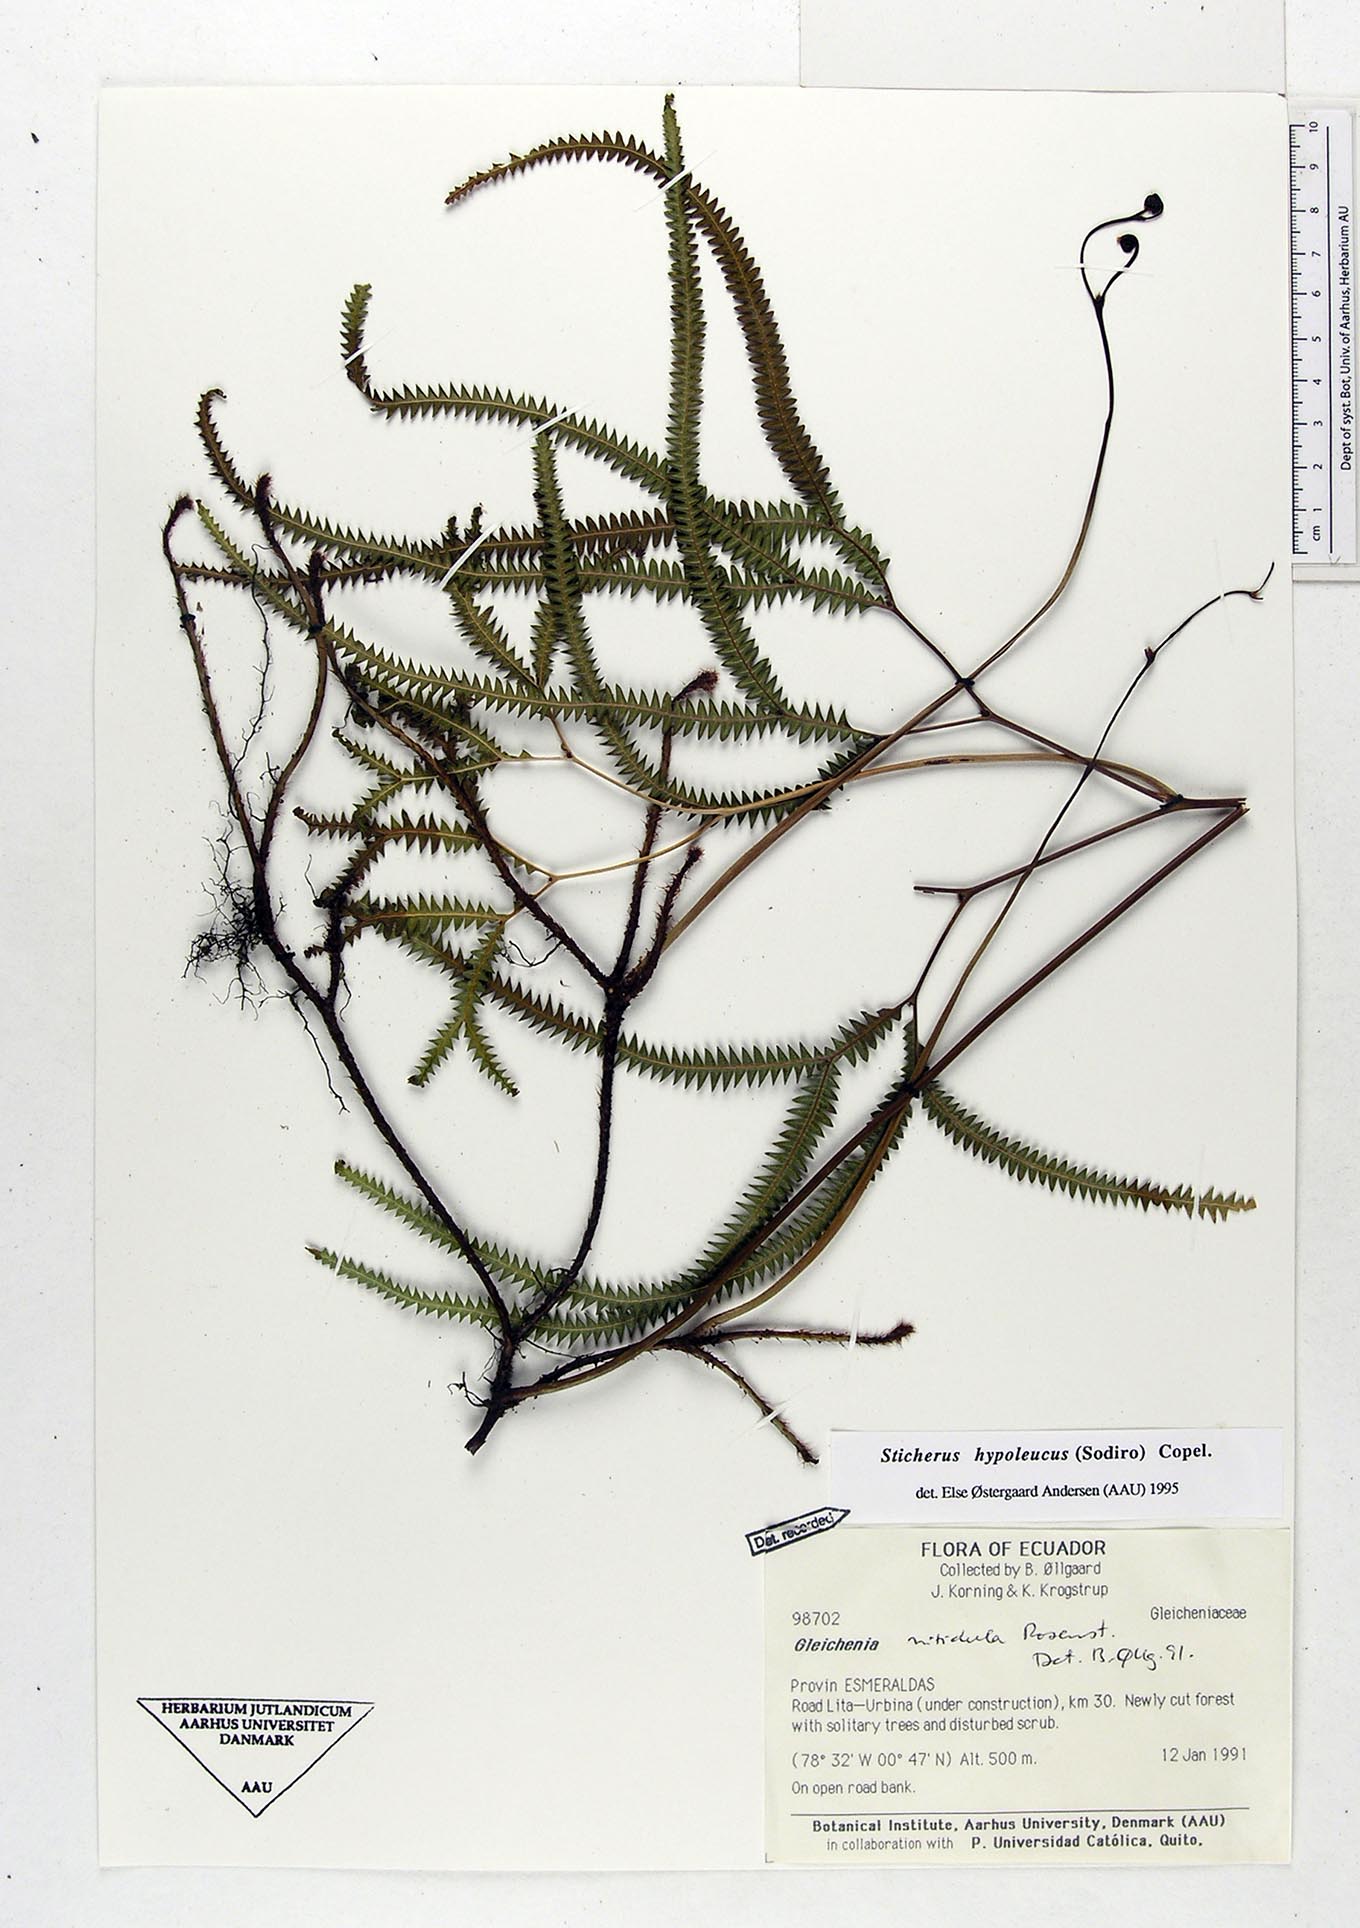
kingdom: Plantae
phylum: Tracheophyta
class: Polypodiopsida
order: Gleicheniales
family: Gleicheniaceae
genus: Sticherus
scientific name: Sticherus hypoleucus
